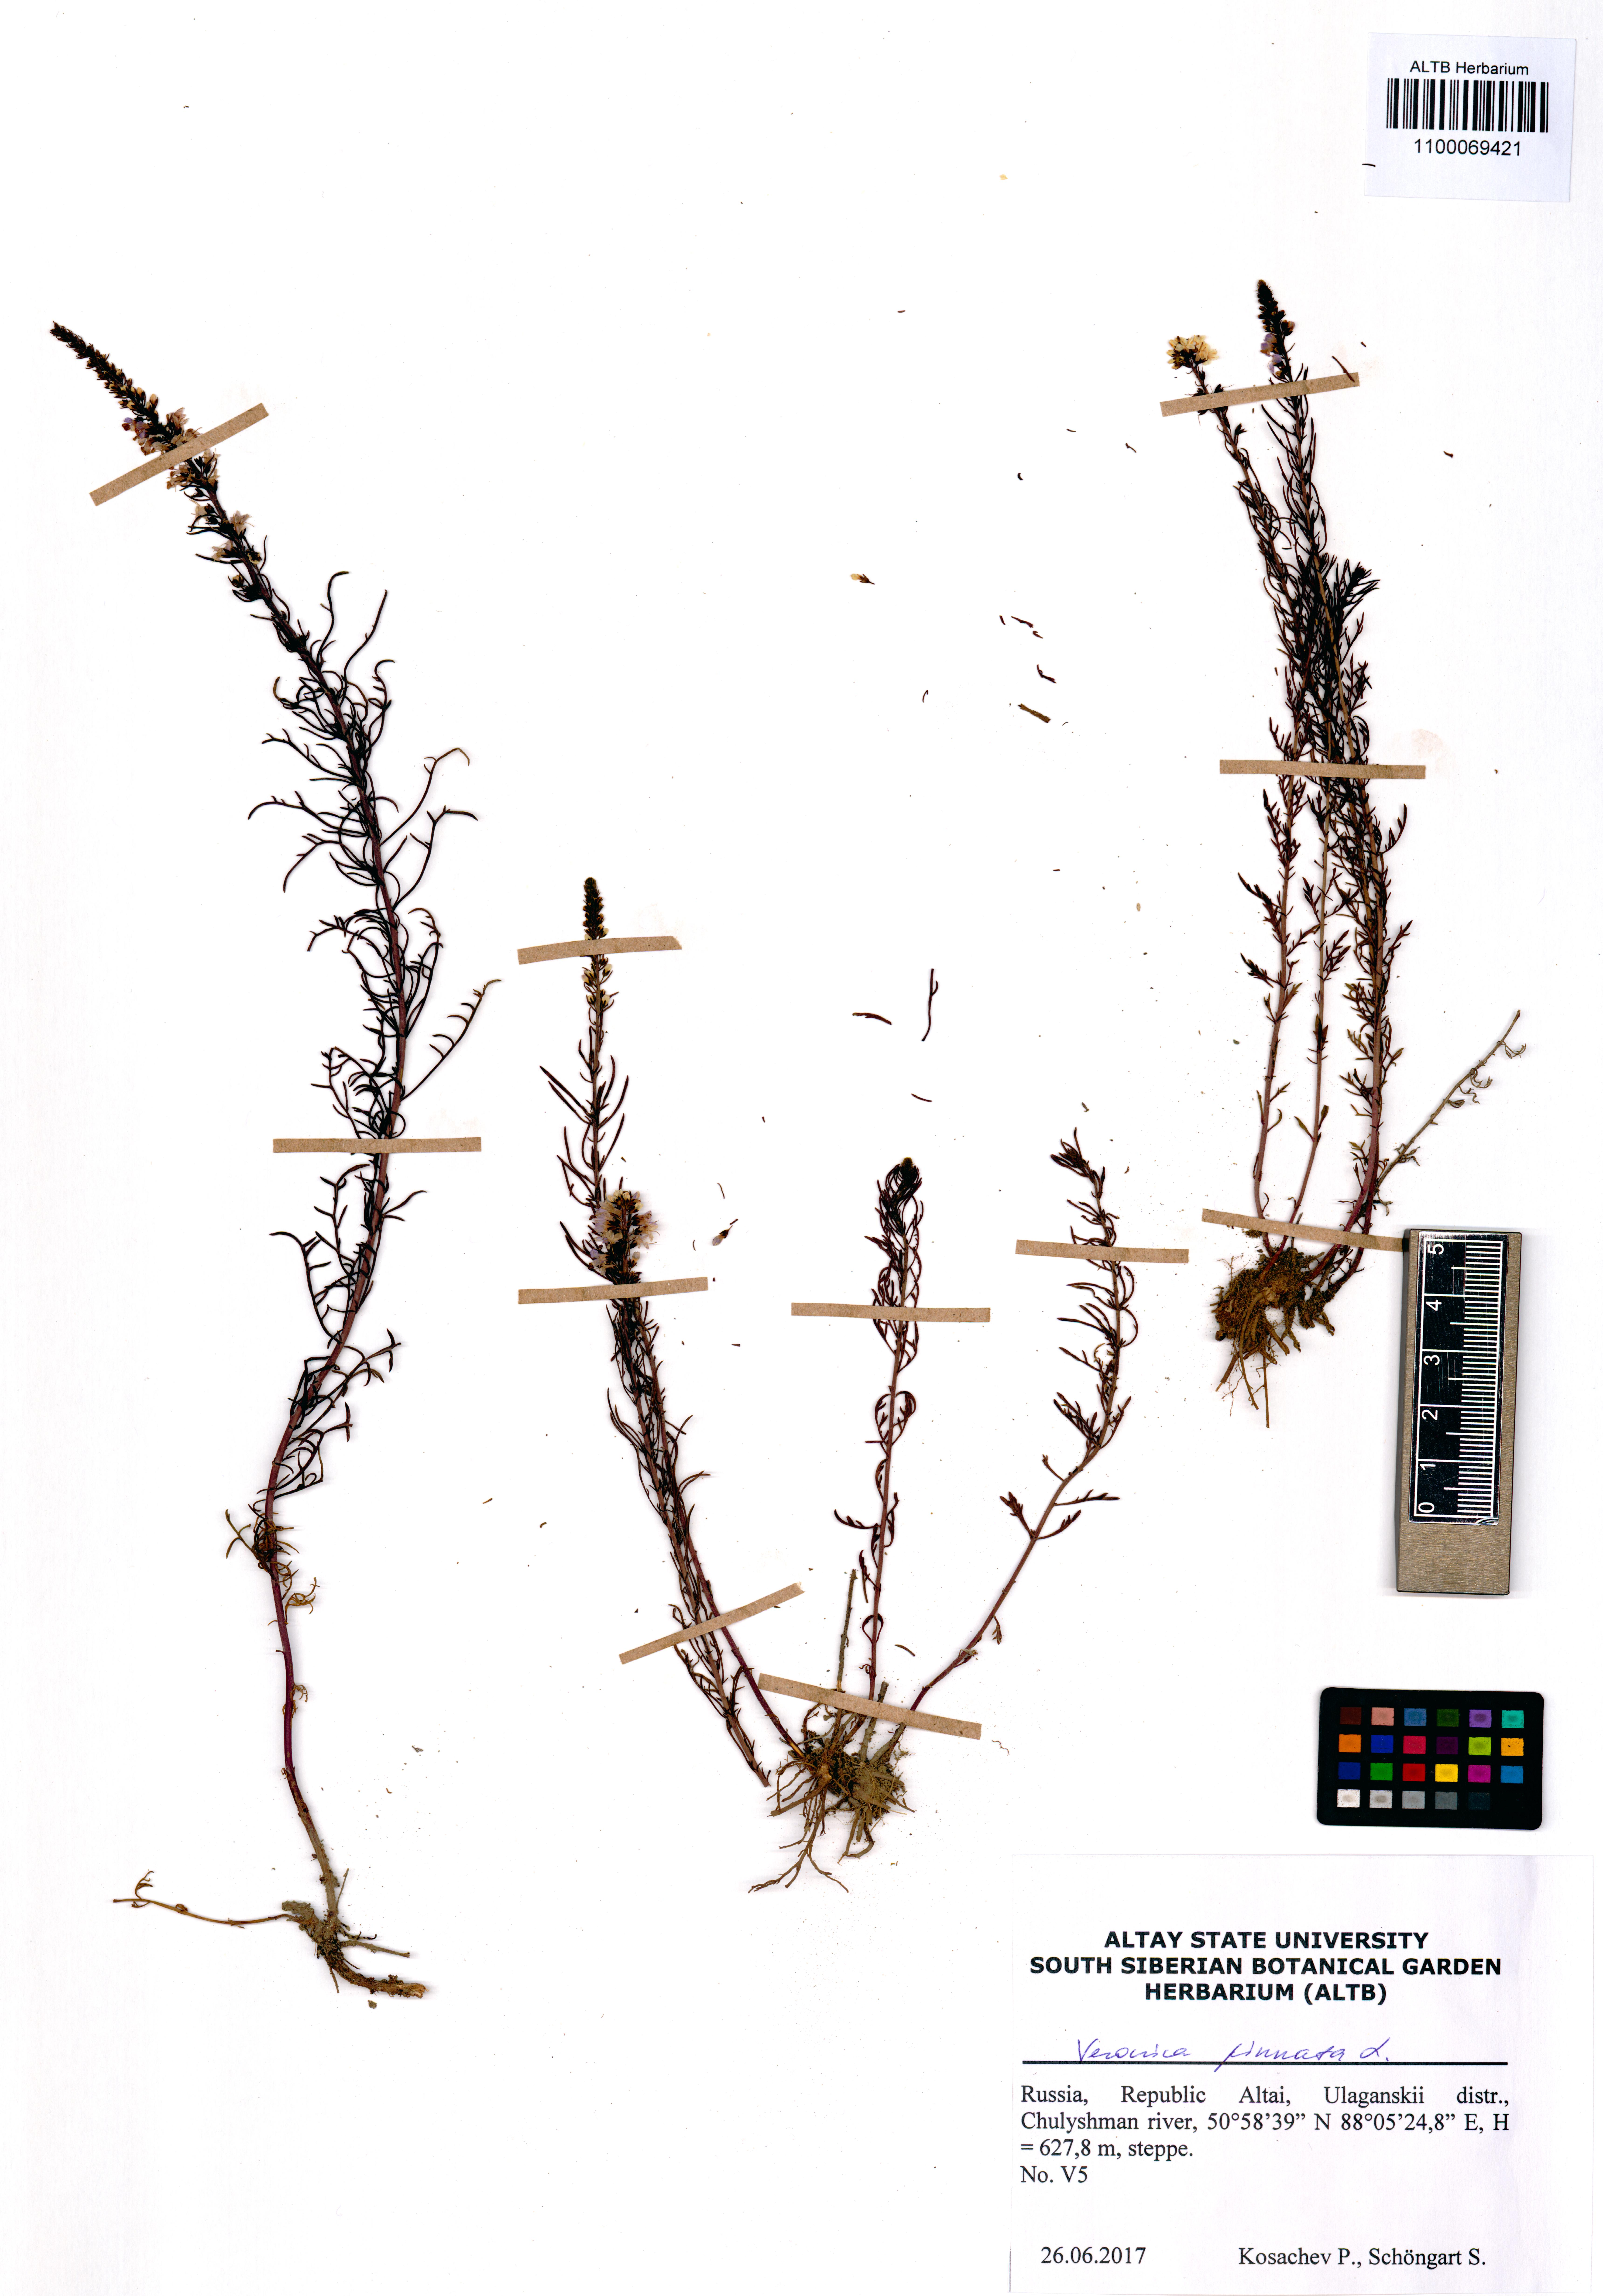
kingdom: Plantae
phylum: Tracheophyta
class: Magnoliopsida
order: Lamiales
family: Plantaginaceae
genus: Veronica
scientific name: Veronica pinnata
